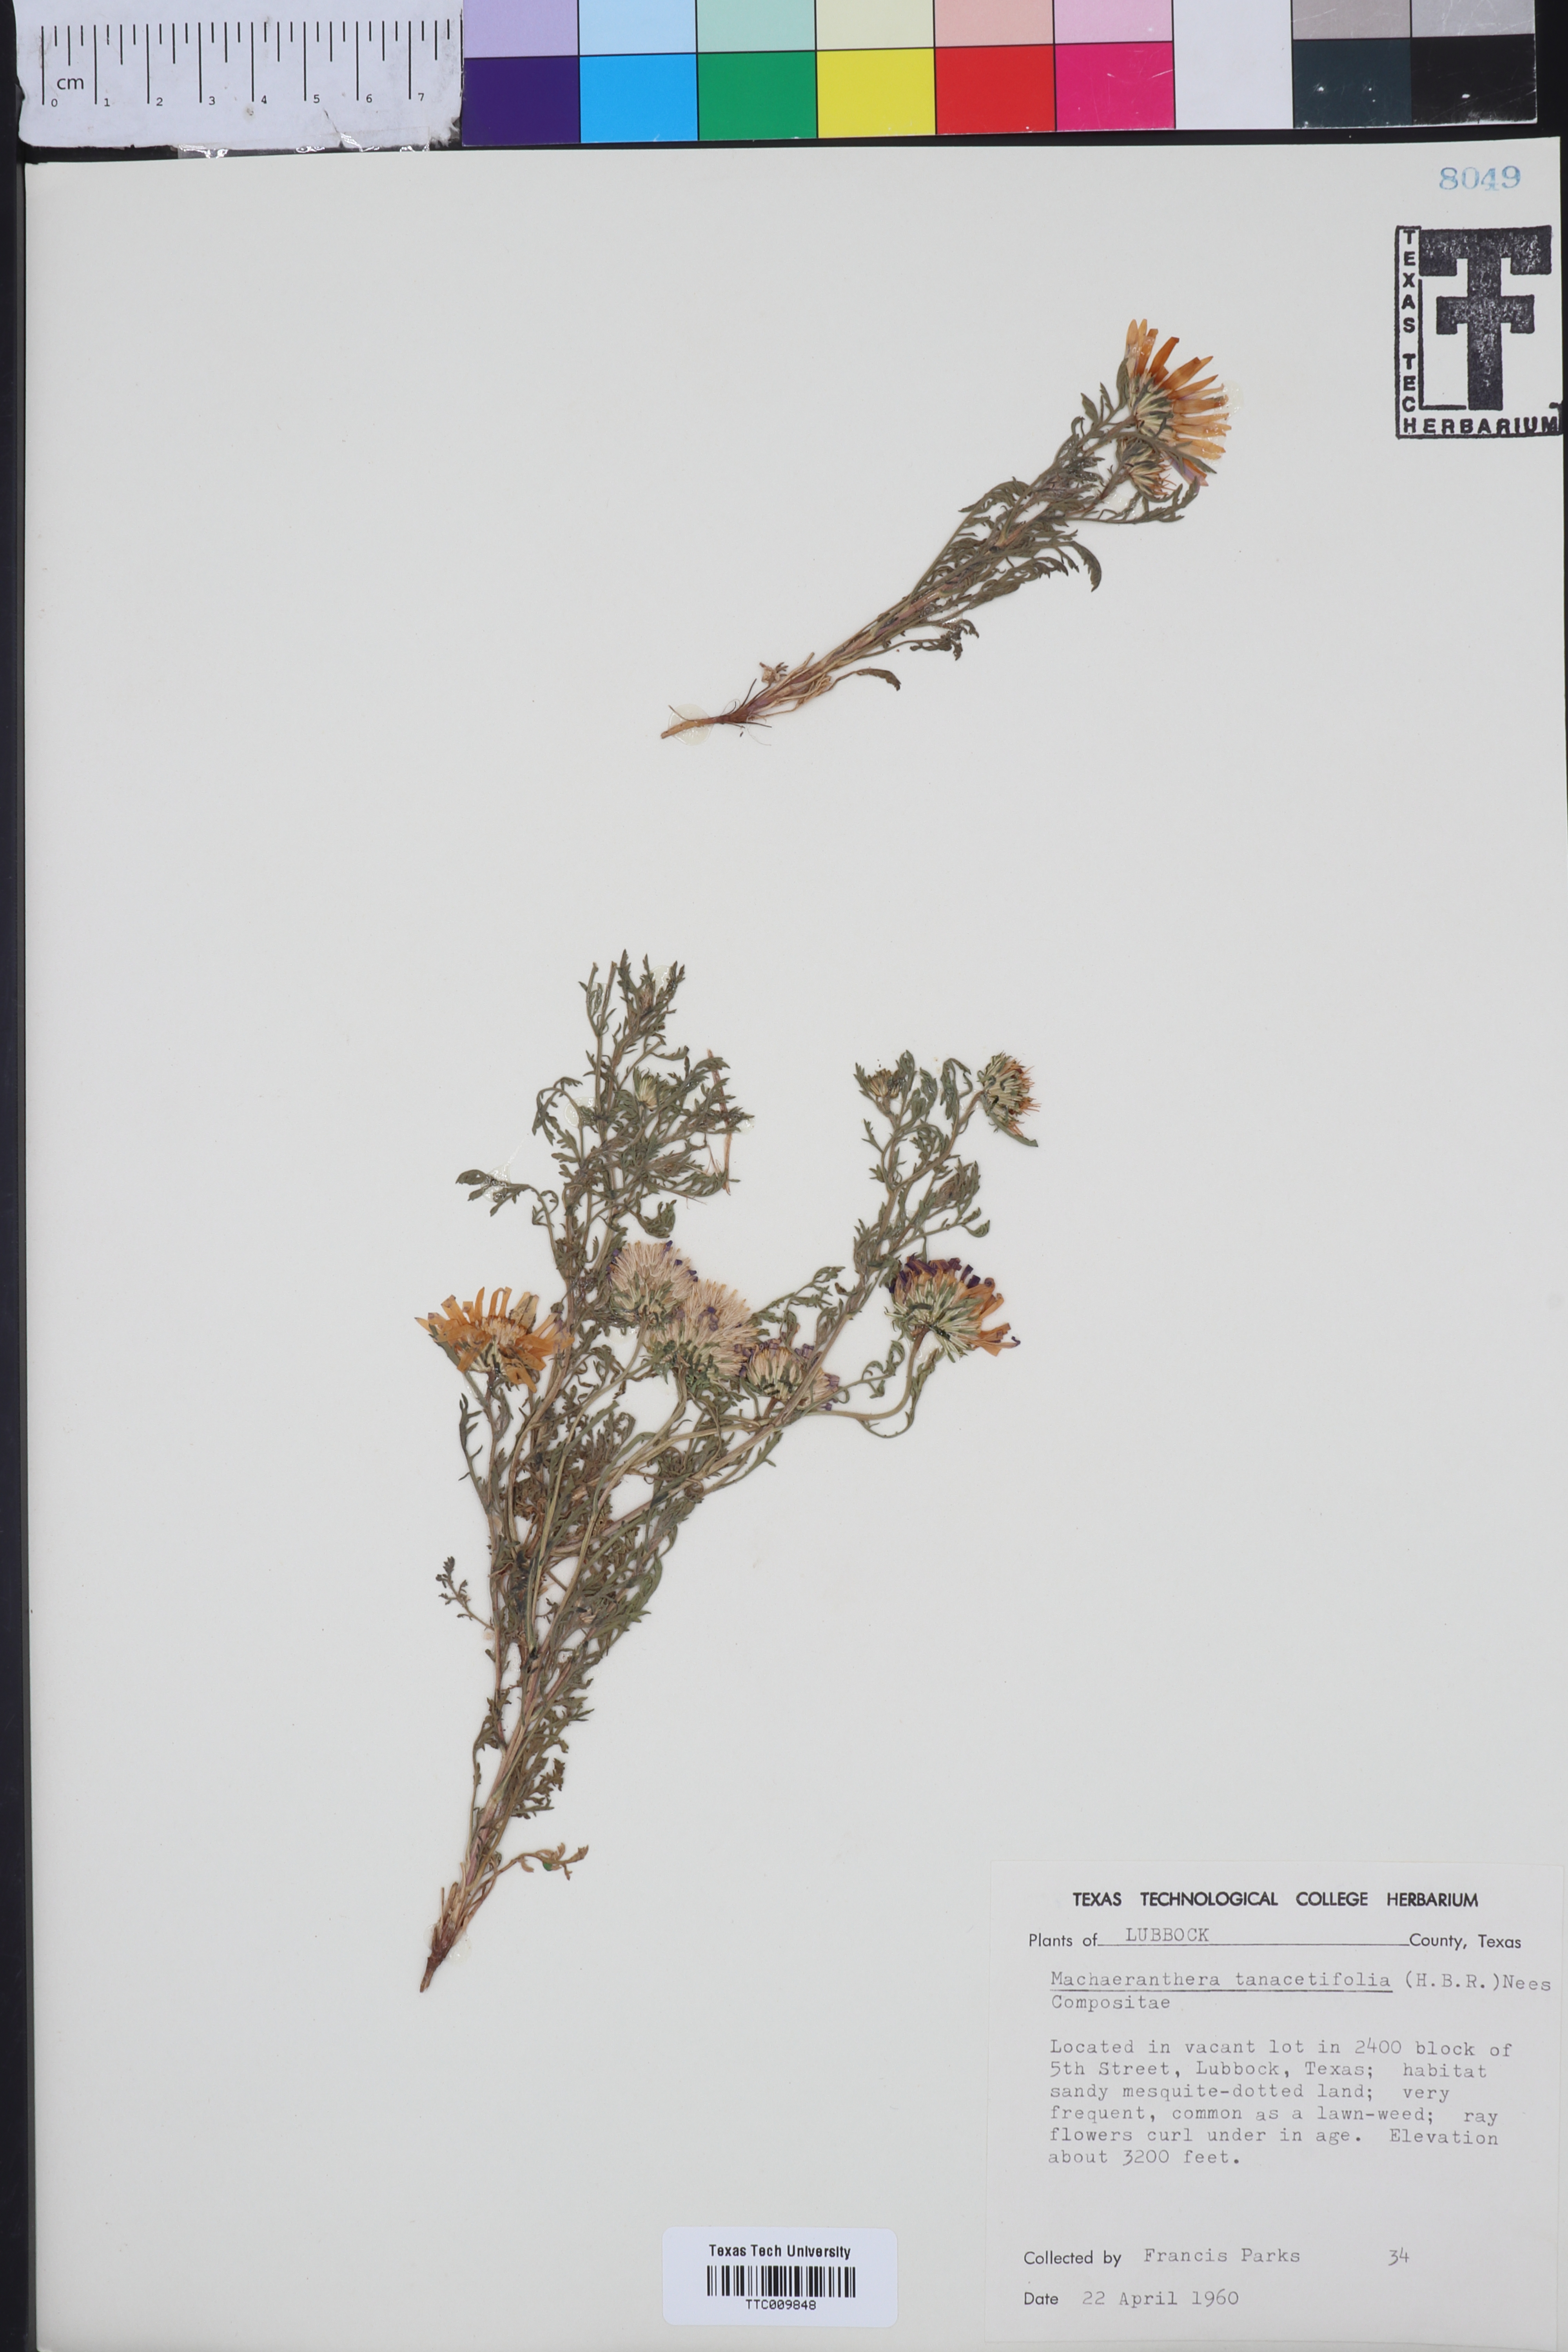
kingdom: Plantae
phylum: Tracheophyta
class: Magnoliopsida
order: Asterales
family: Asteraceae
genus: Machaeranthera
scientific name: Machaeranthera tanacetifolia
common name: Tansy-aster
